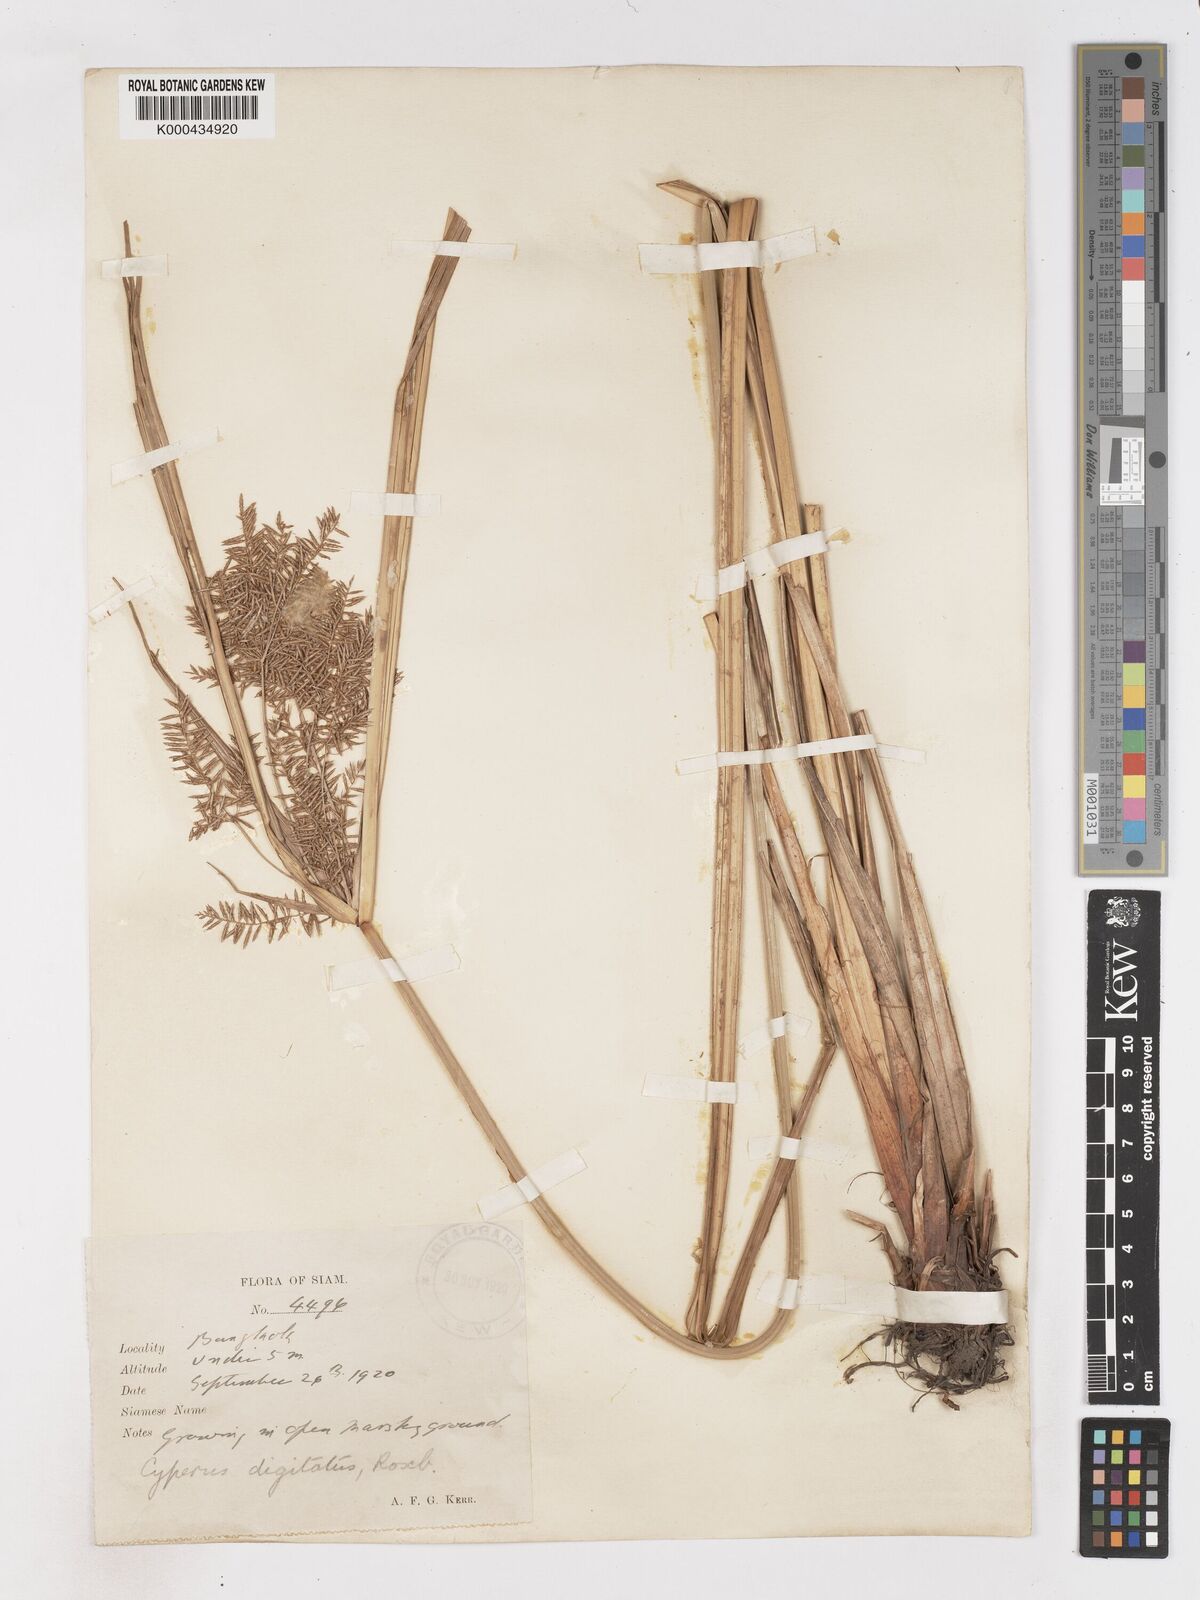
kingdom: Plantae
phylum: Tracheophyta
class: Liliopsida
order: Poales
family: Cyperaceae
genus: Cyperus
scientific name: Cyperus digitatus
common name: Finger flatsedge
